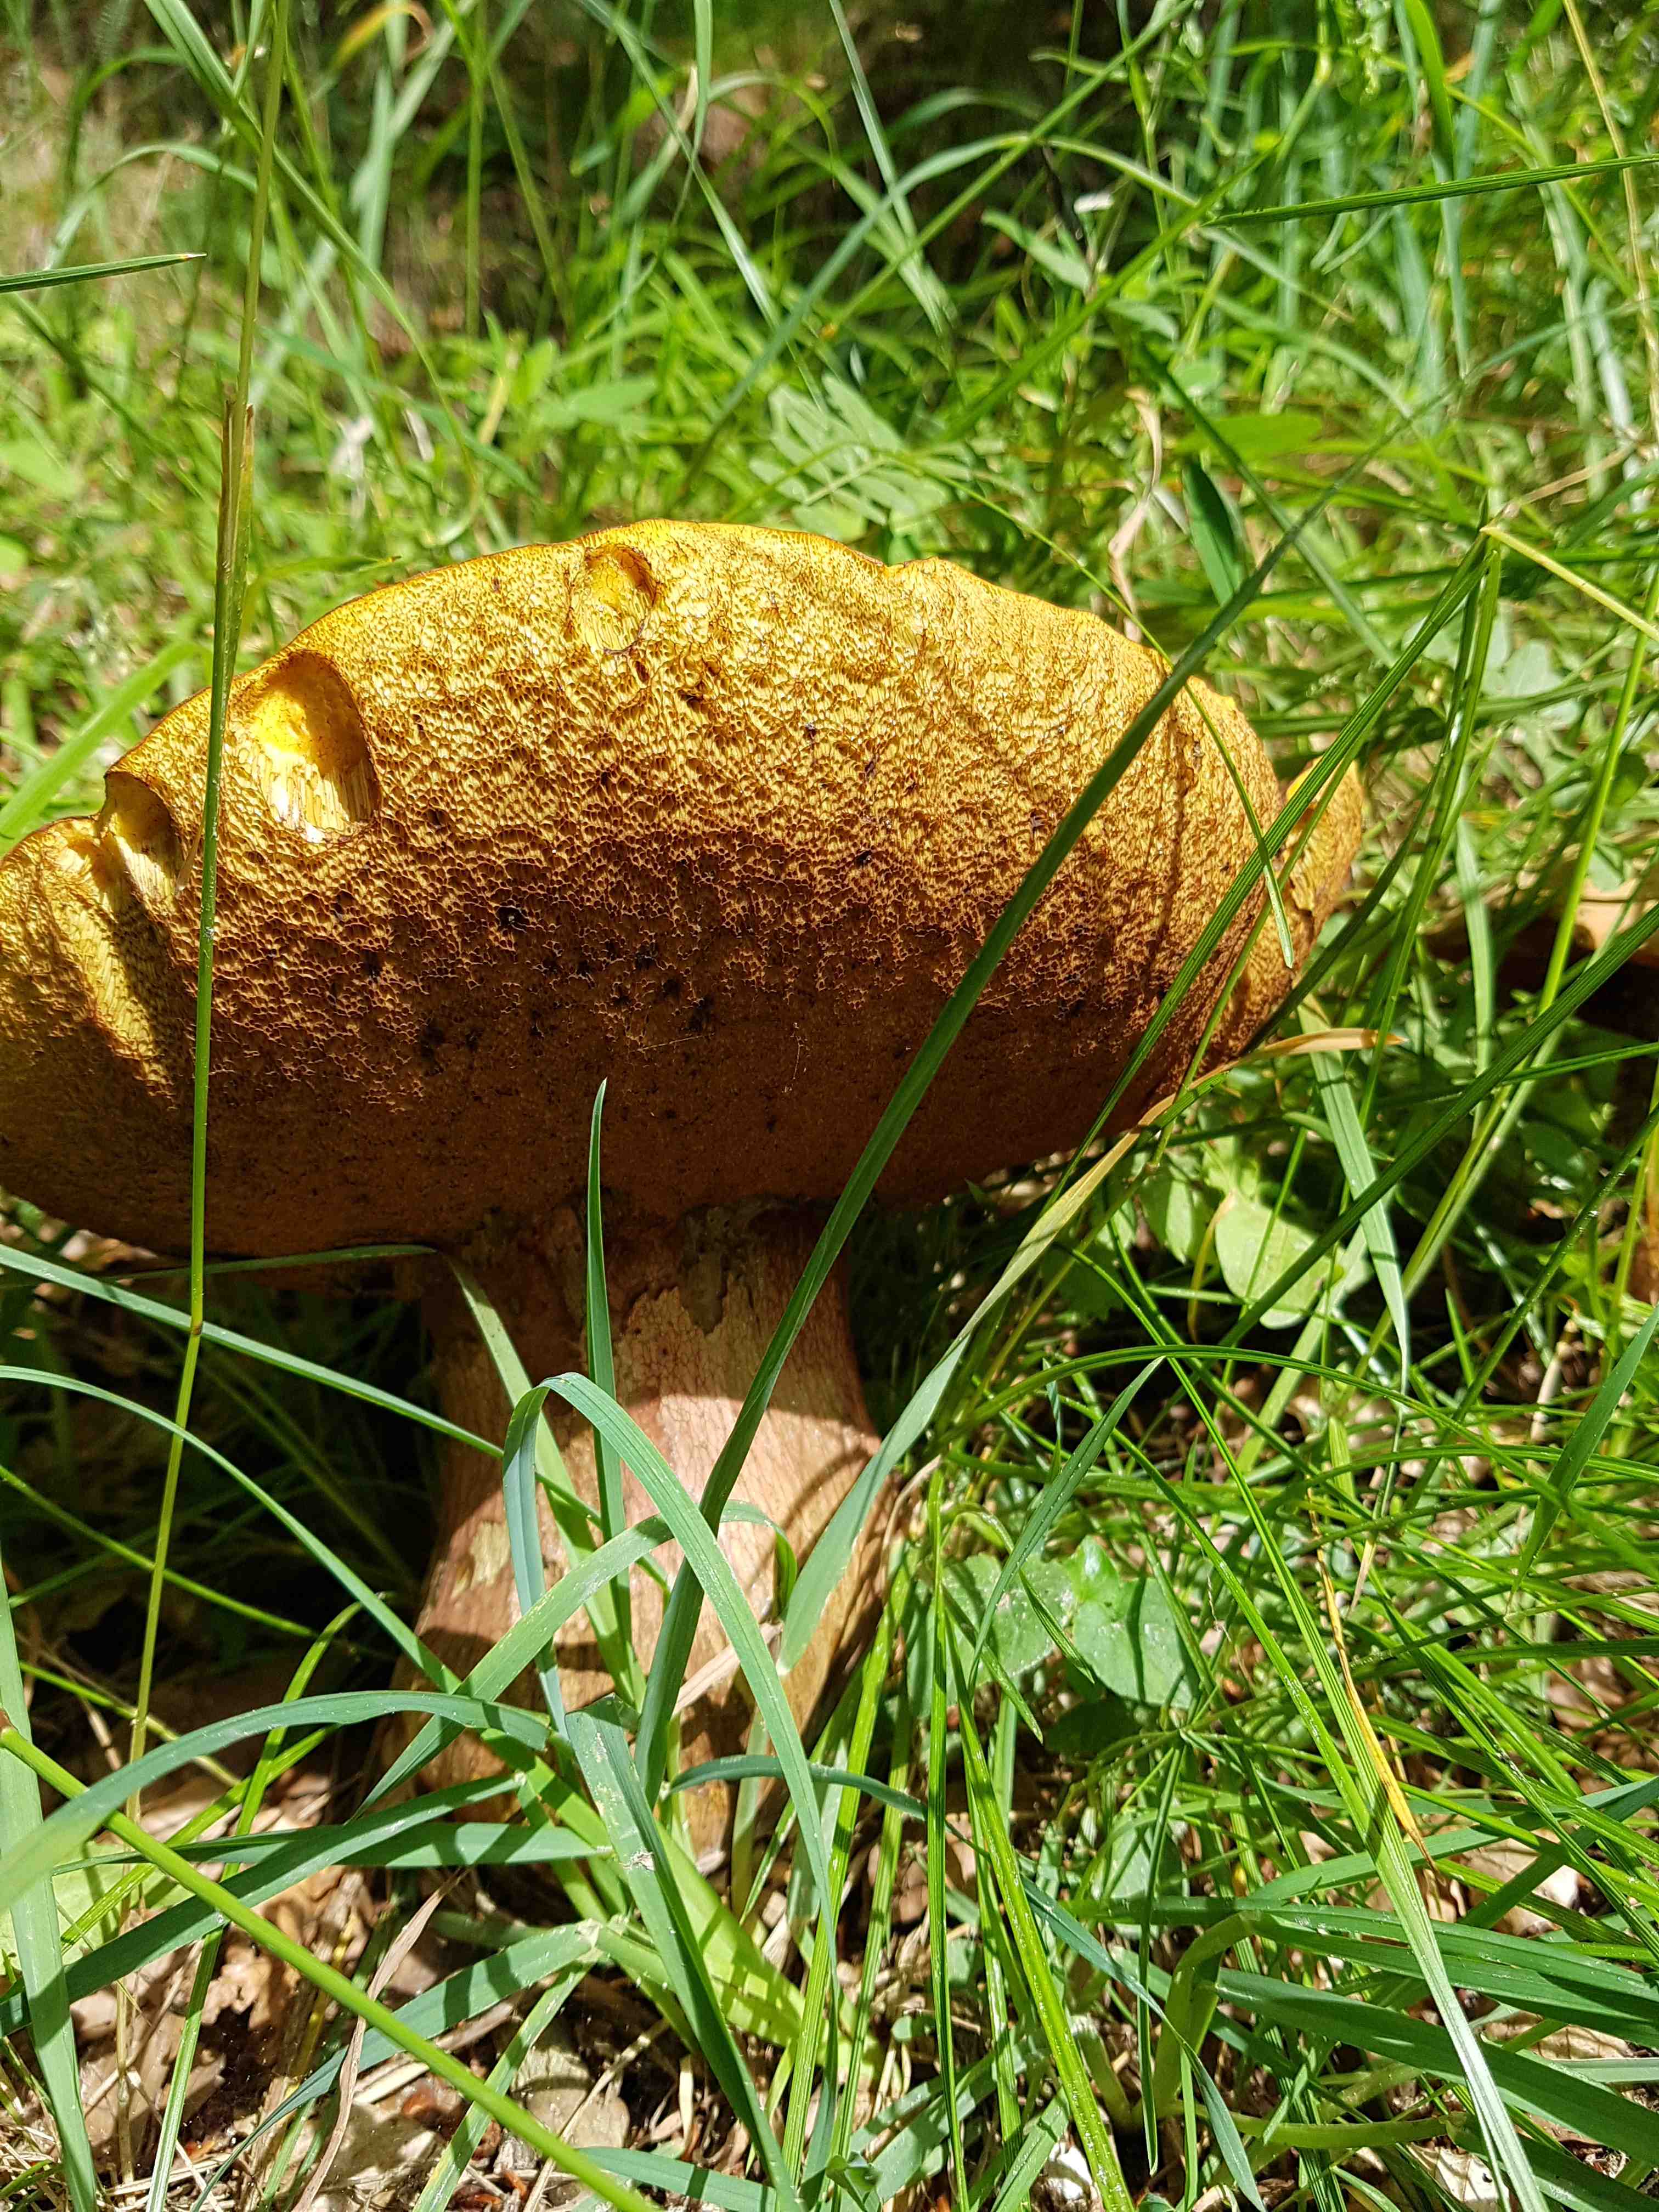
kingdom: Fungi
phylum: Basidiomycota
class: Agaricomycetes
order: Boletales
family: Boletaceae
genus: Suillellus
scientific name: Suillellus luridus
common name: netstokket indigorørhat
